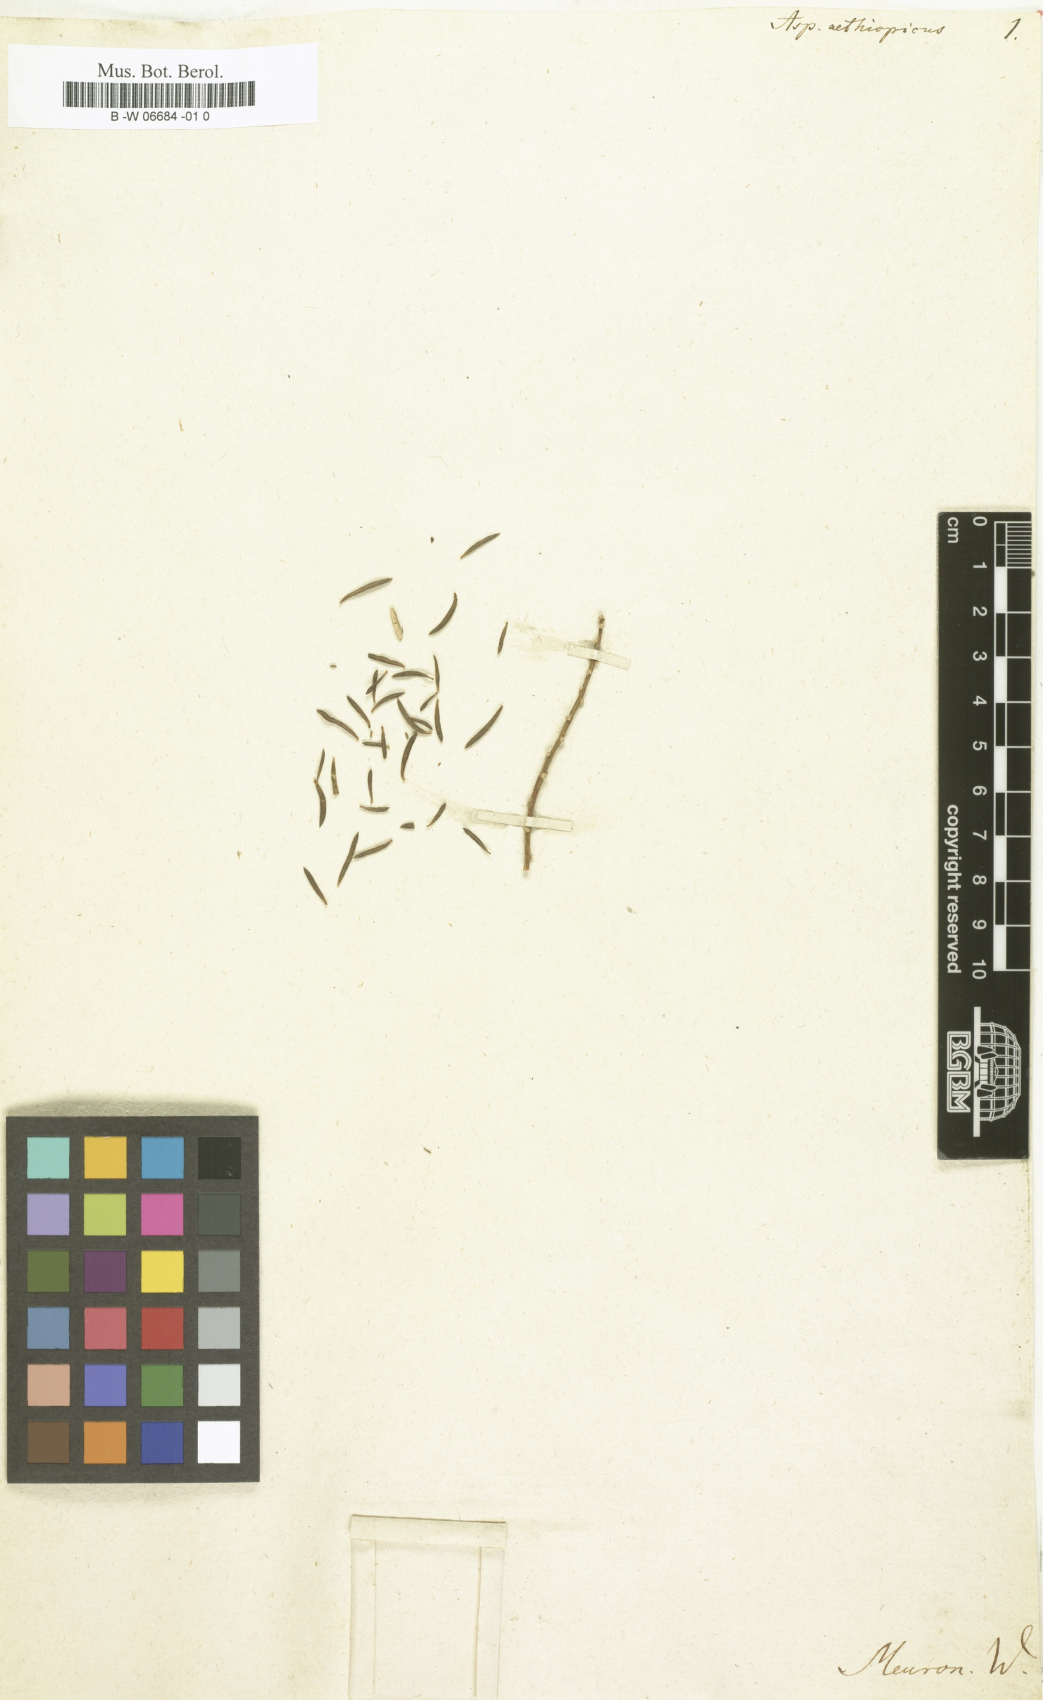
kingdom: Plantae
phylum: Tracheophyta
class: Liliopsida
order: Asparagales
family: Asparagaceae
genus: Asparagus
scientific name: Asparagus aethiopicus
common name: Sprenger's asparagus fern
